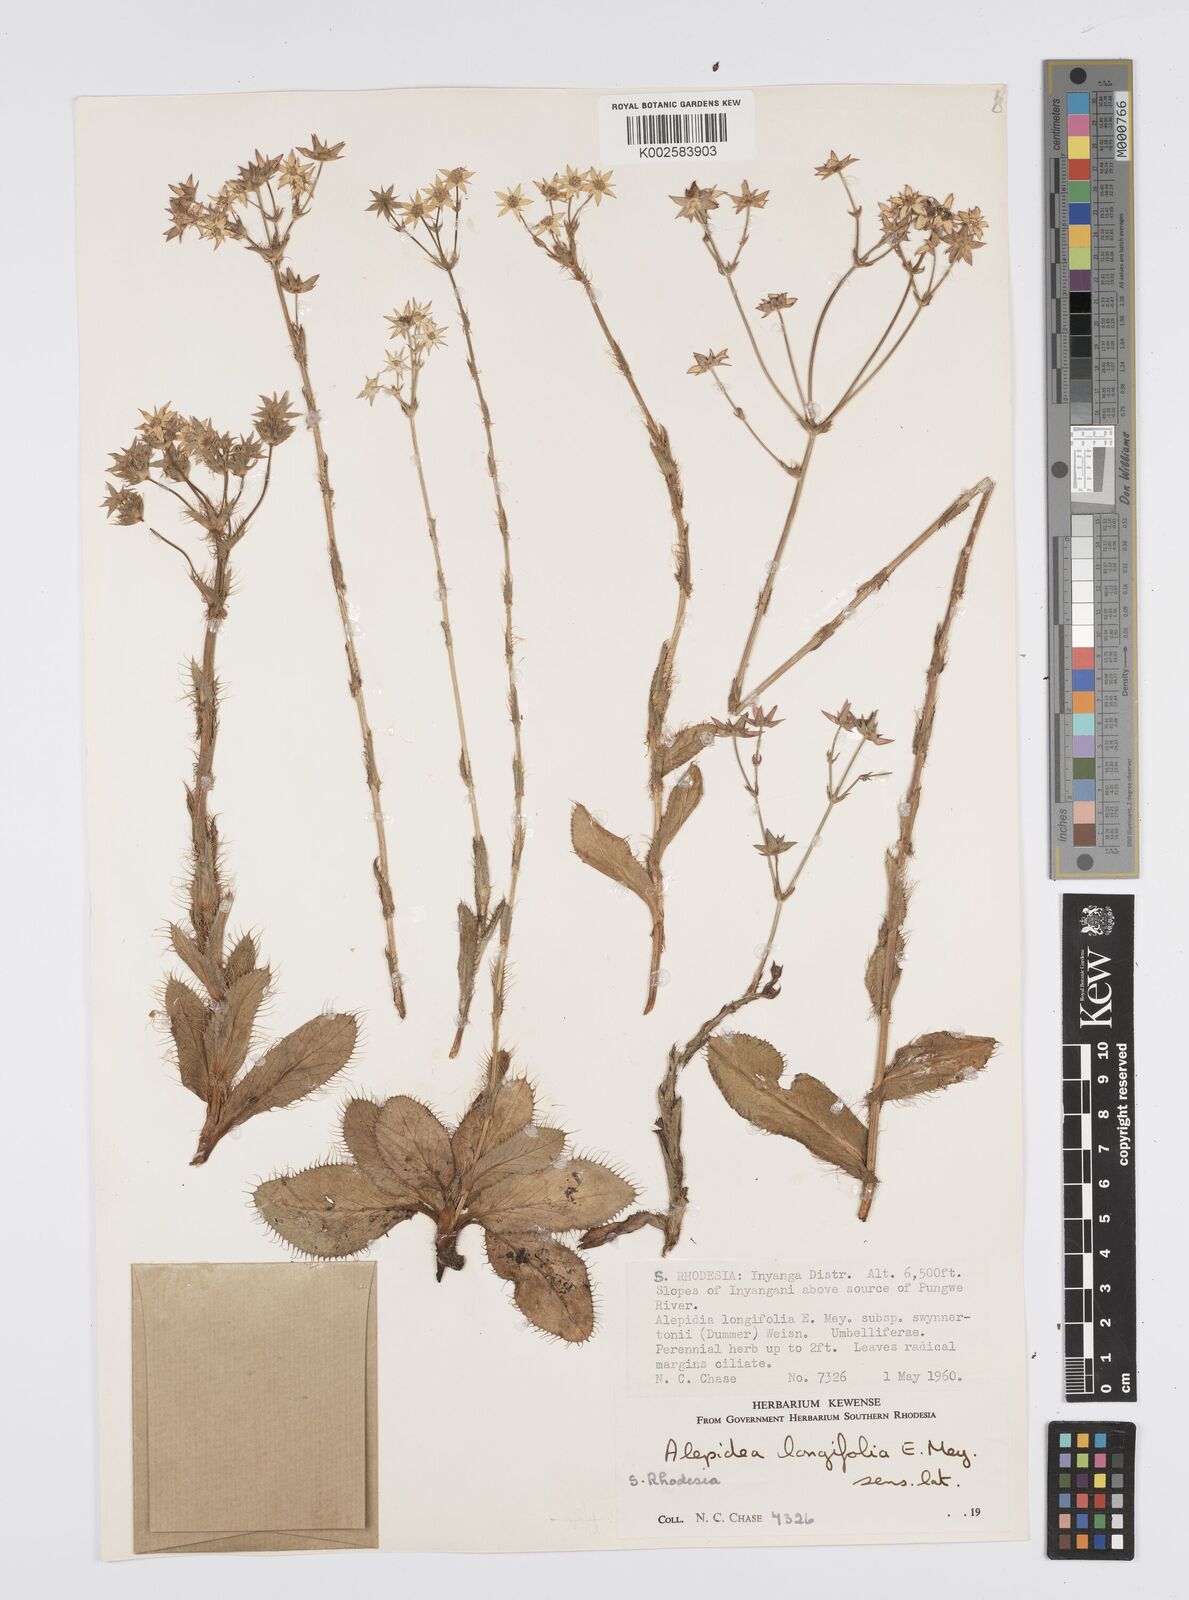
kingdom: Plantae
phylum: Tracheophyta
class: Magnoliopsida
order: Apiales
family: Apiaceae
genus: Alepidea
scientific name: Alepidea
